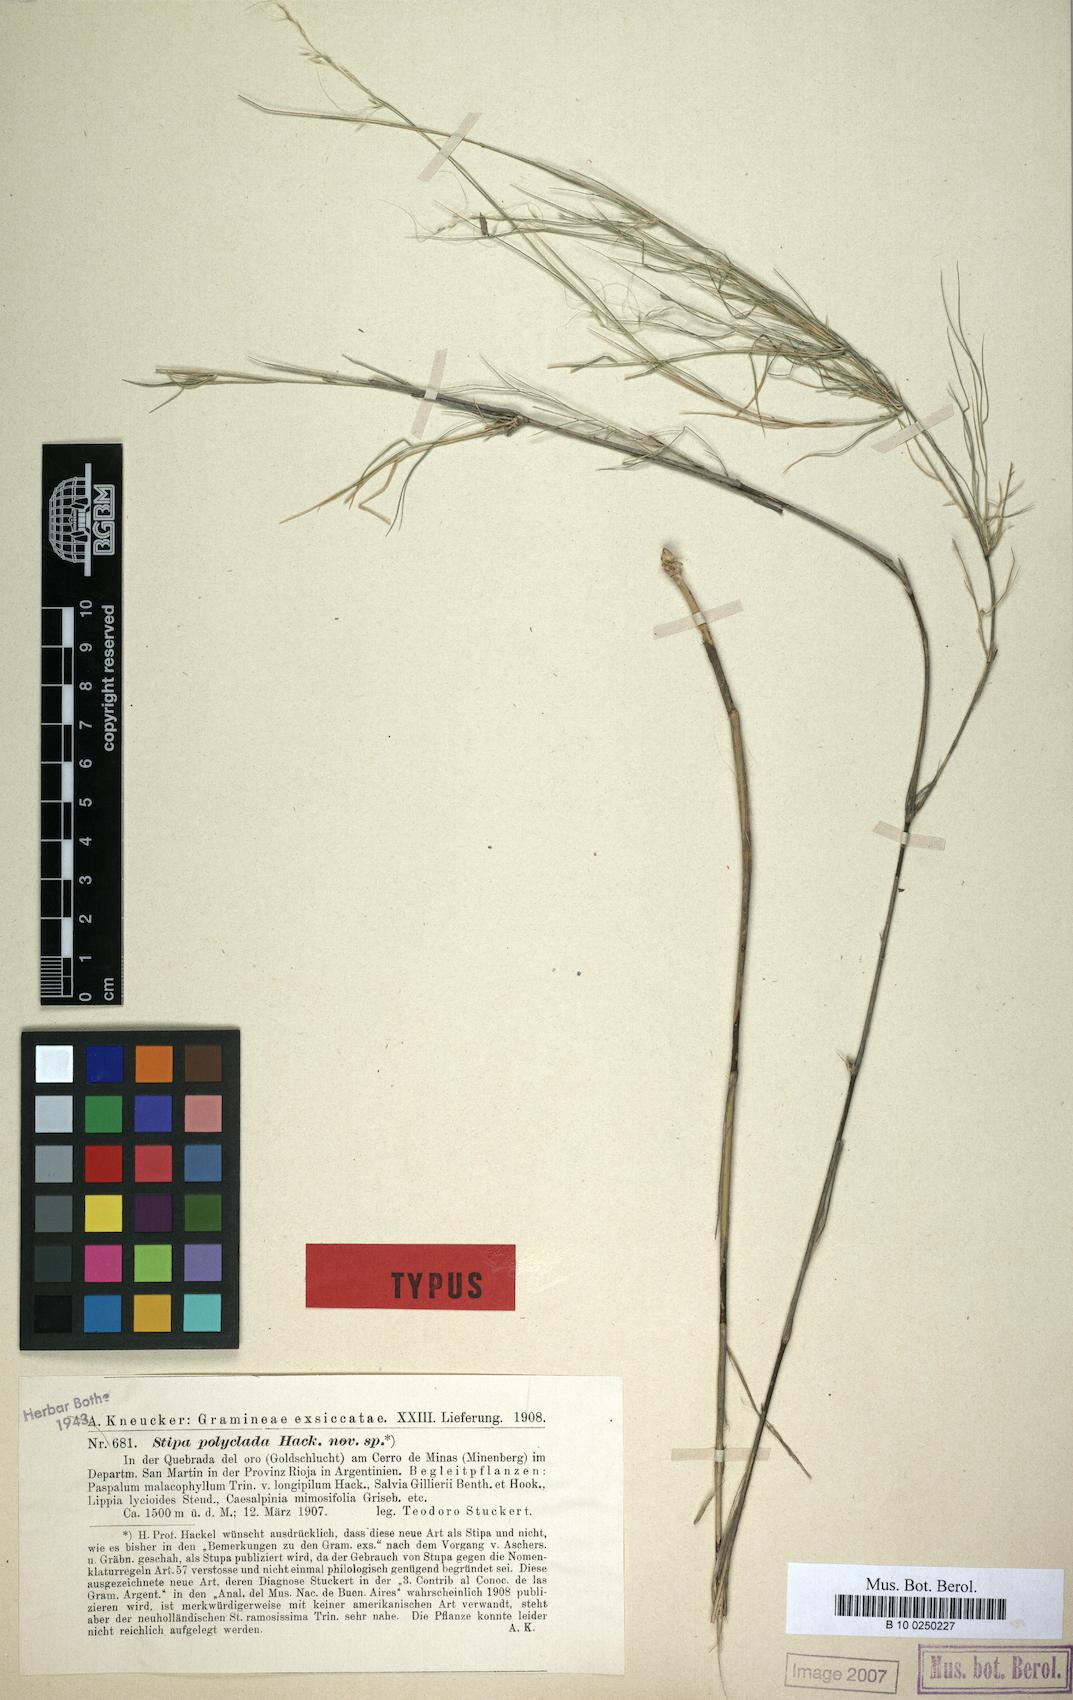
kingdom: Plantae
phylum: Tracheophyta
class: Liliopsida
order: Poales
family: Poaceae
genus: Stipa
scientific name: Stipa polyclada
